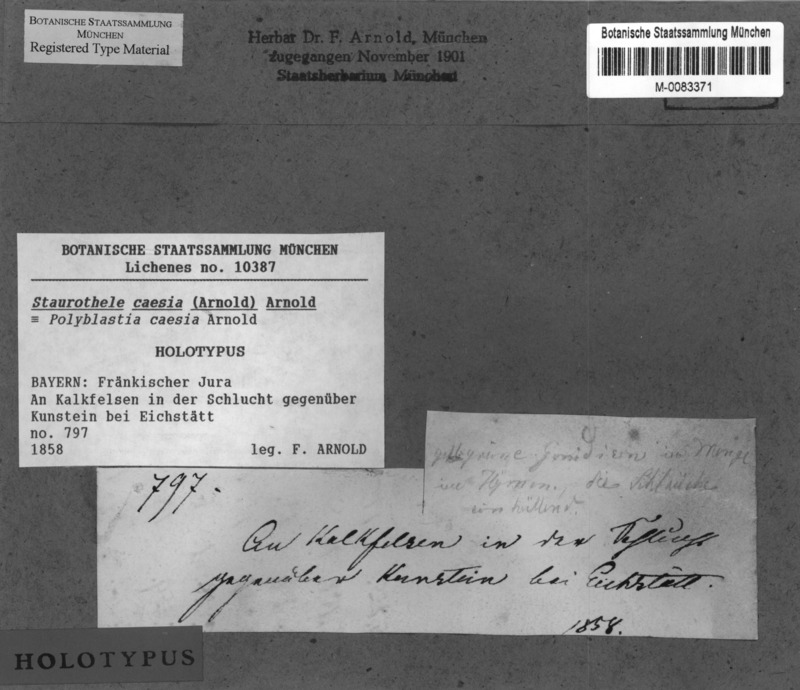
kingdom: Fungi
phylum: Ascomycota
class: Eurotiomycetes
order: Verrucariales
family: Verrucariaceae
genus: Staurothele
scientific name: Staurothele caesia
